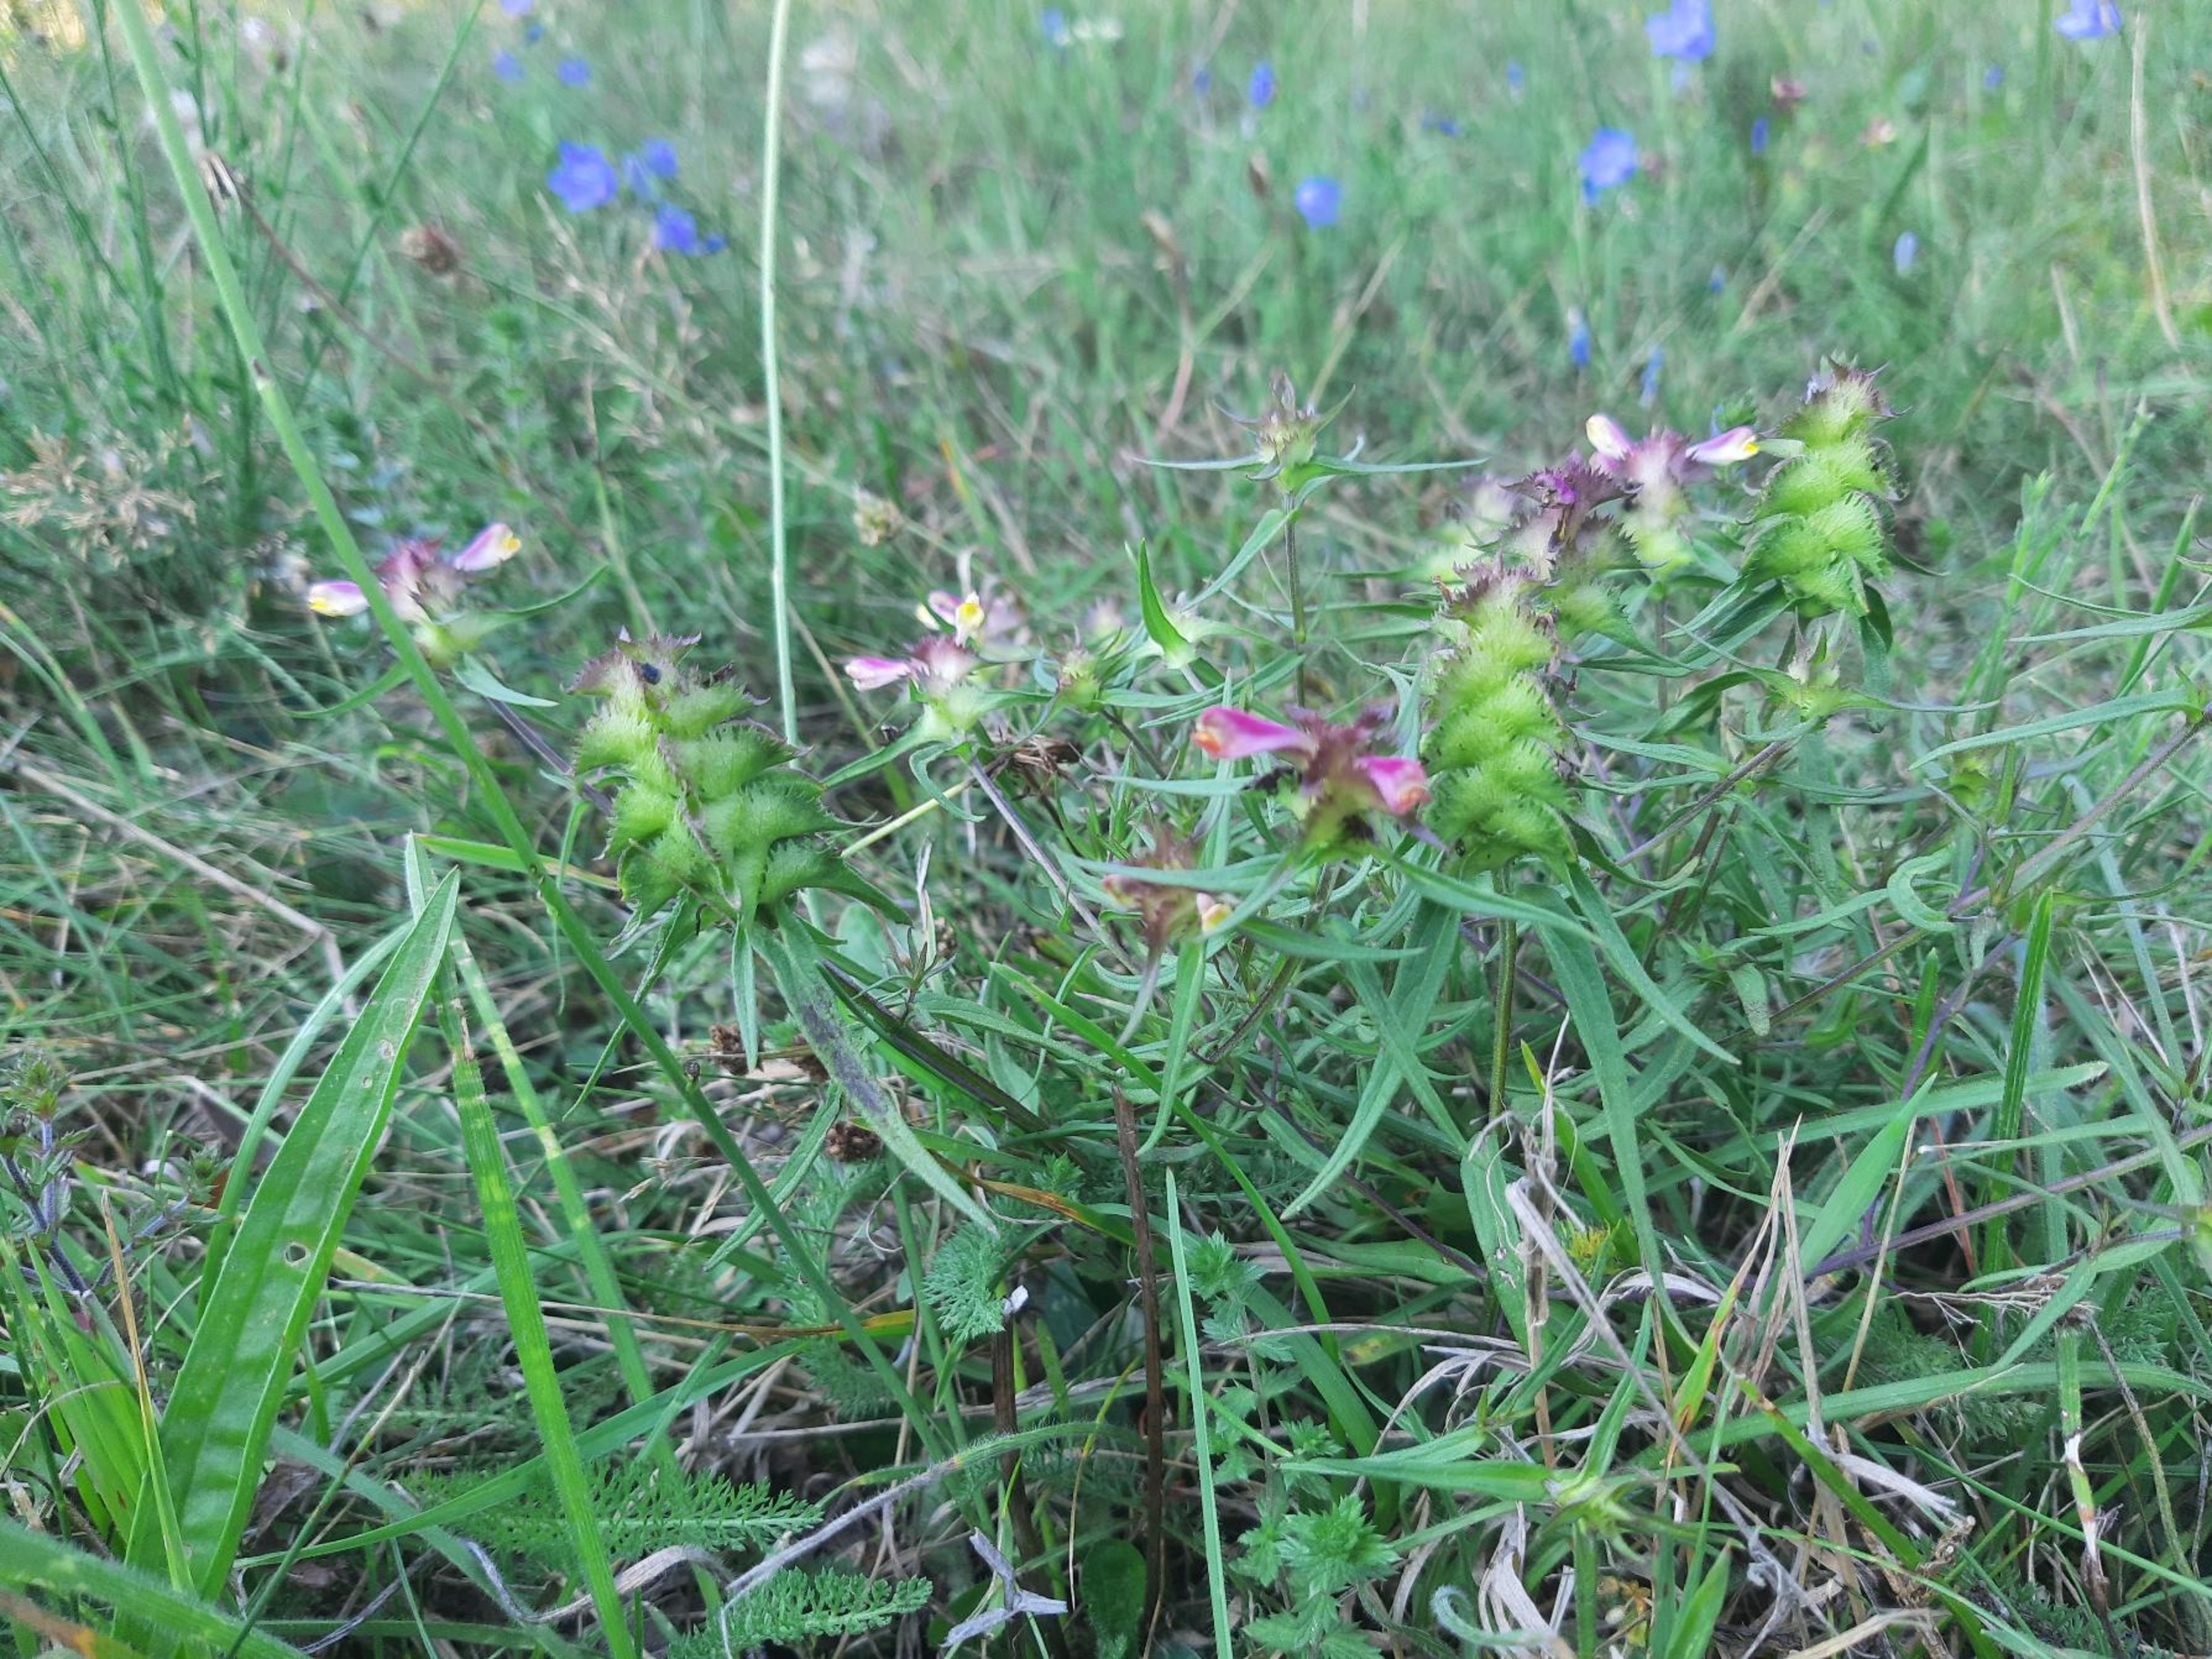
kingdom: Plantae
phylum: Tracheophyta
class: Magnoliopsida
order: Lamiales
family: Orobanchaceae
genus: Melampyrum
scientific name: Melampyrum cristatum
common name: Kantet kohvede
